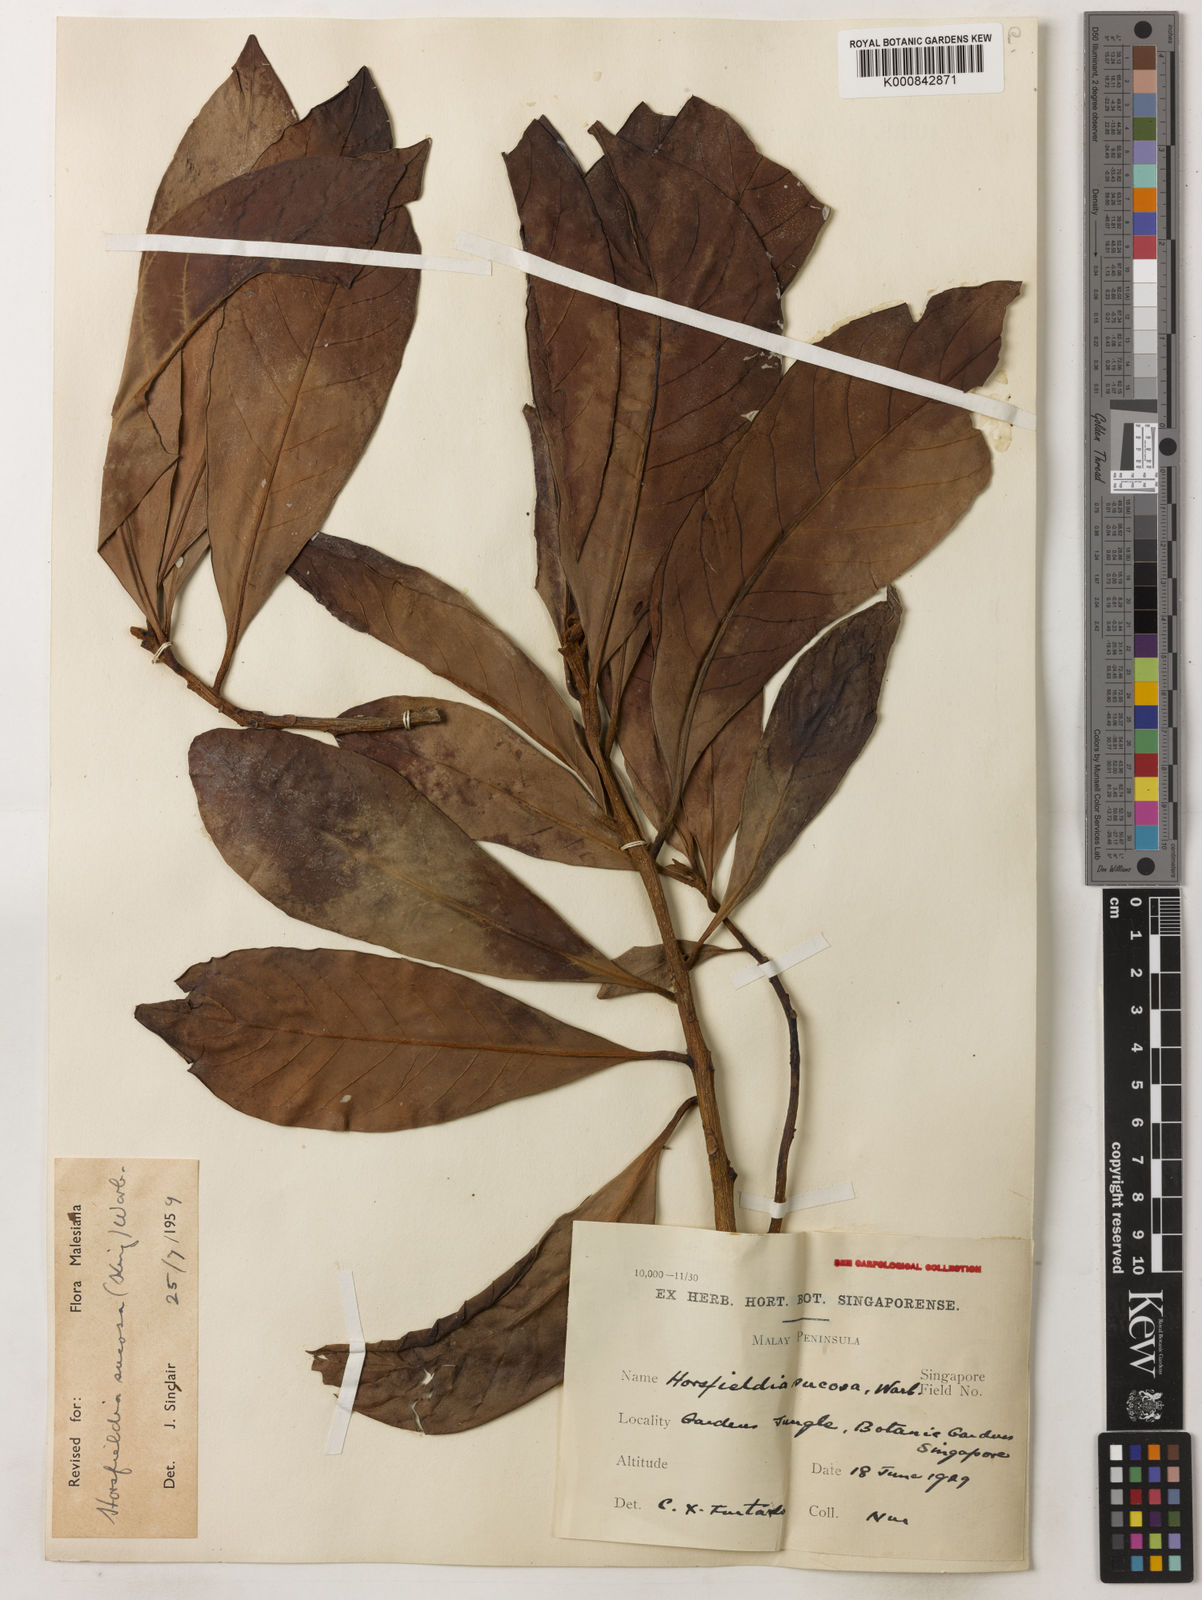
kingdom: Plantae
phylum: Tracheophyta
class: Magnoliopsida
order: Magnoliales
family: Myristicaceae
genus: Horsfieldia
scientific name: Horsfieldia sucosa
